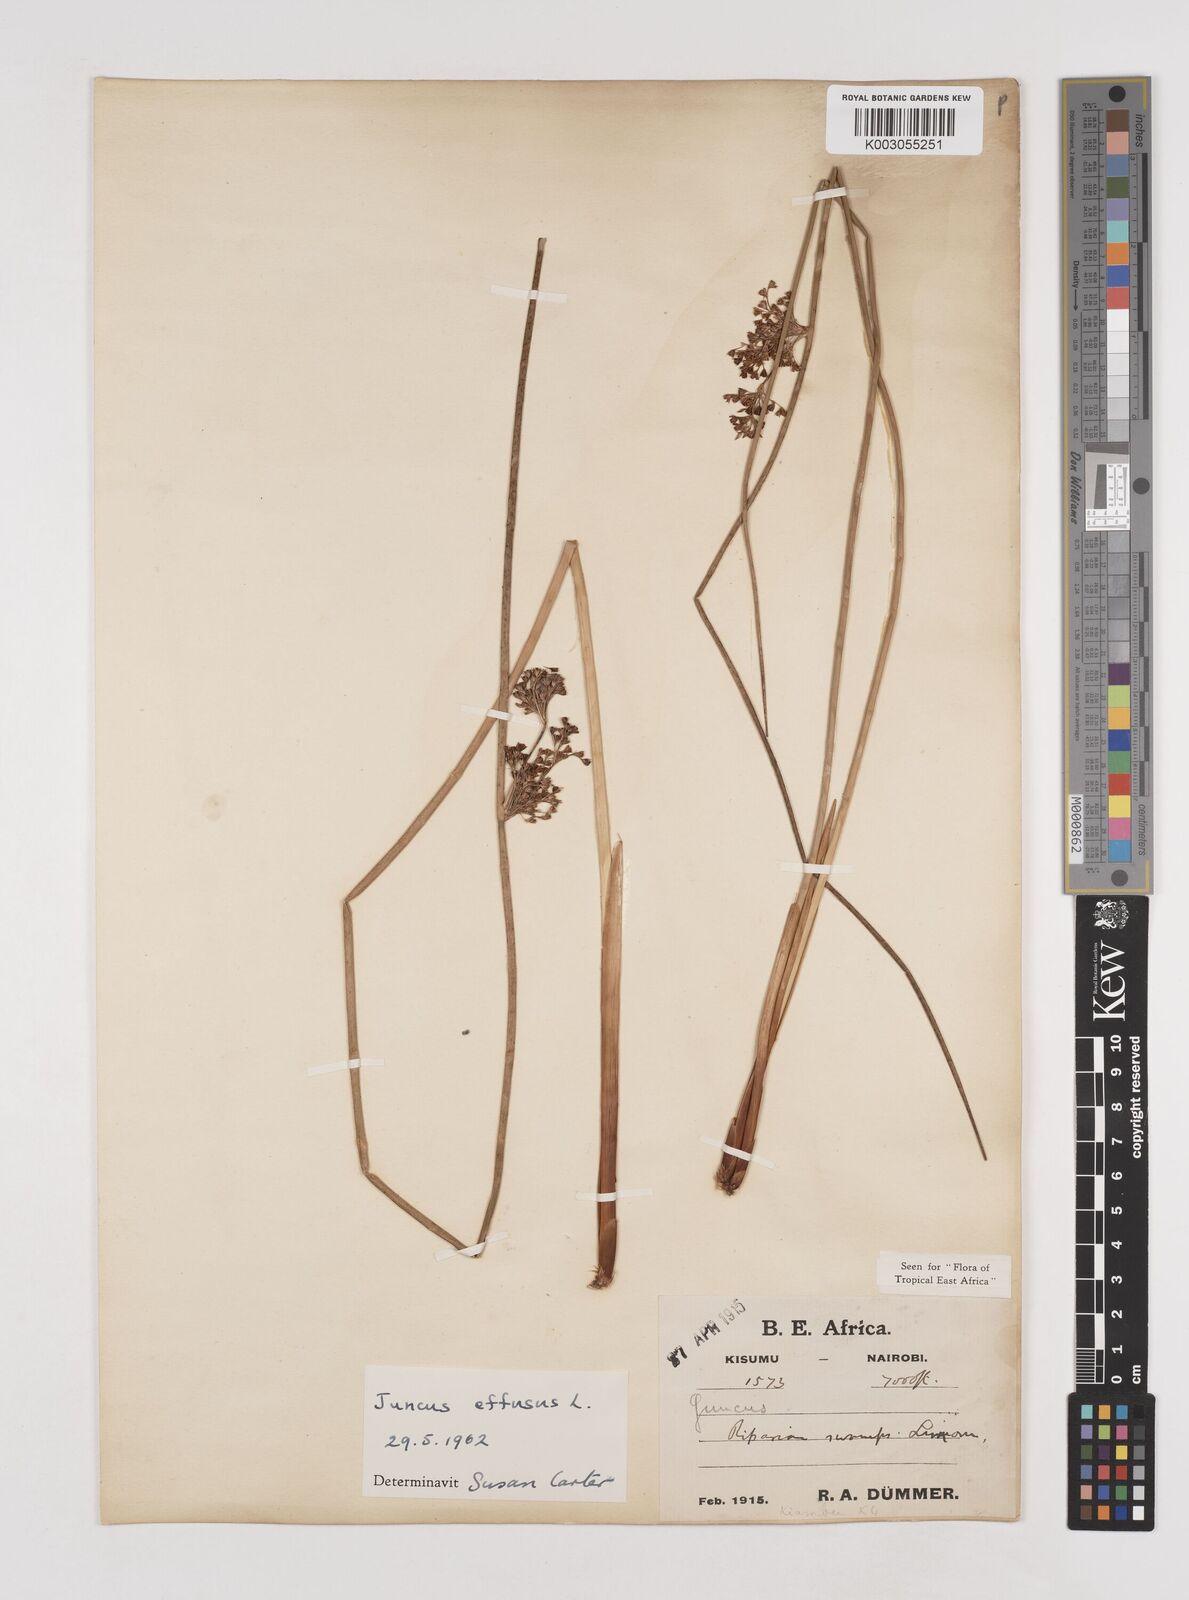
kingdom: Plantae
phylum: Tracheophyta
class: Liliopsida
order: Poales
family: Juncaceae
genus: Juncus
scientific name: Juncus effusus
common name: Soft rush
